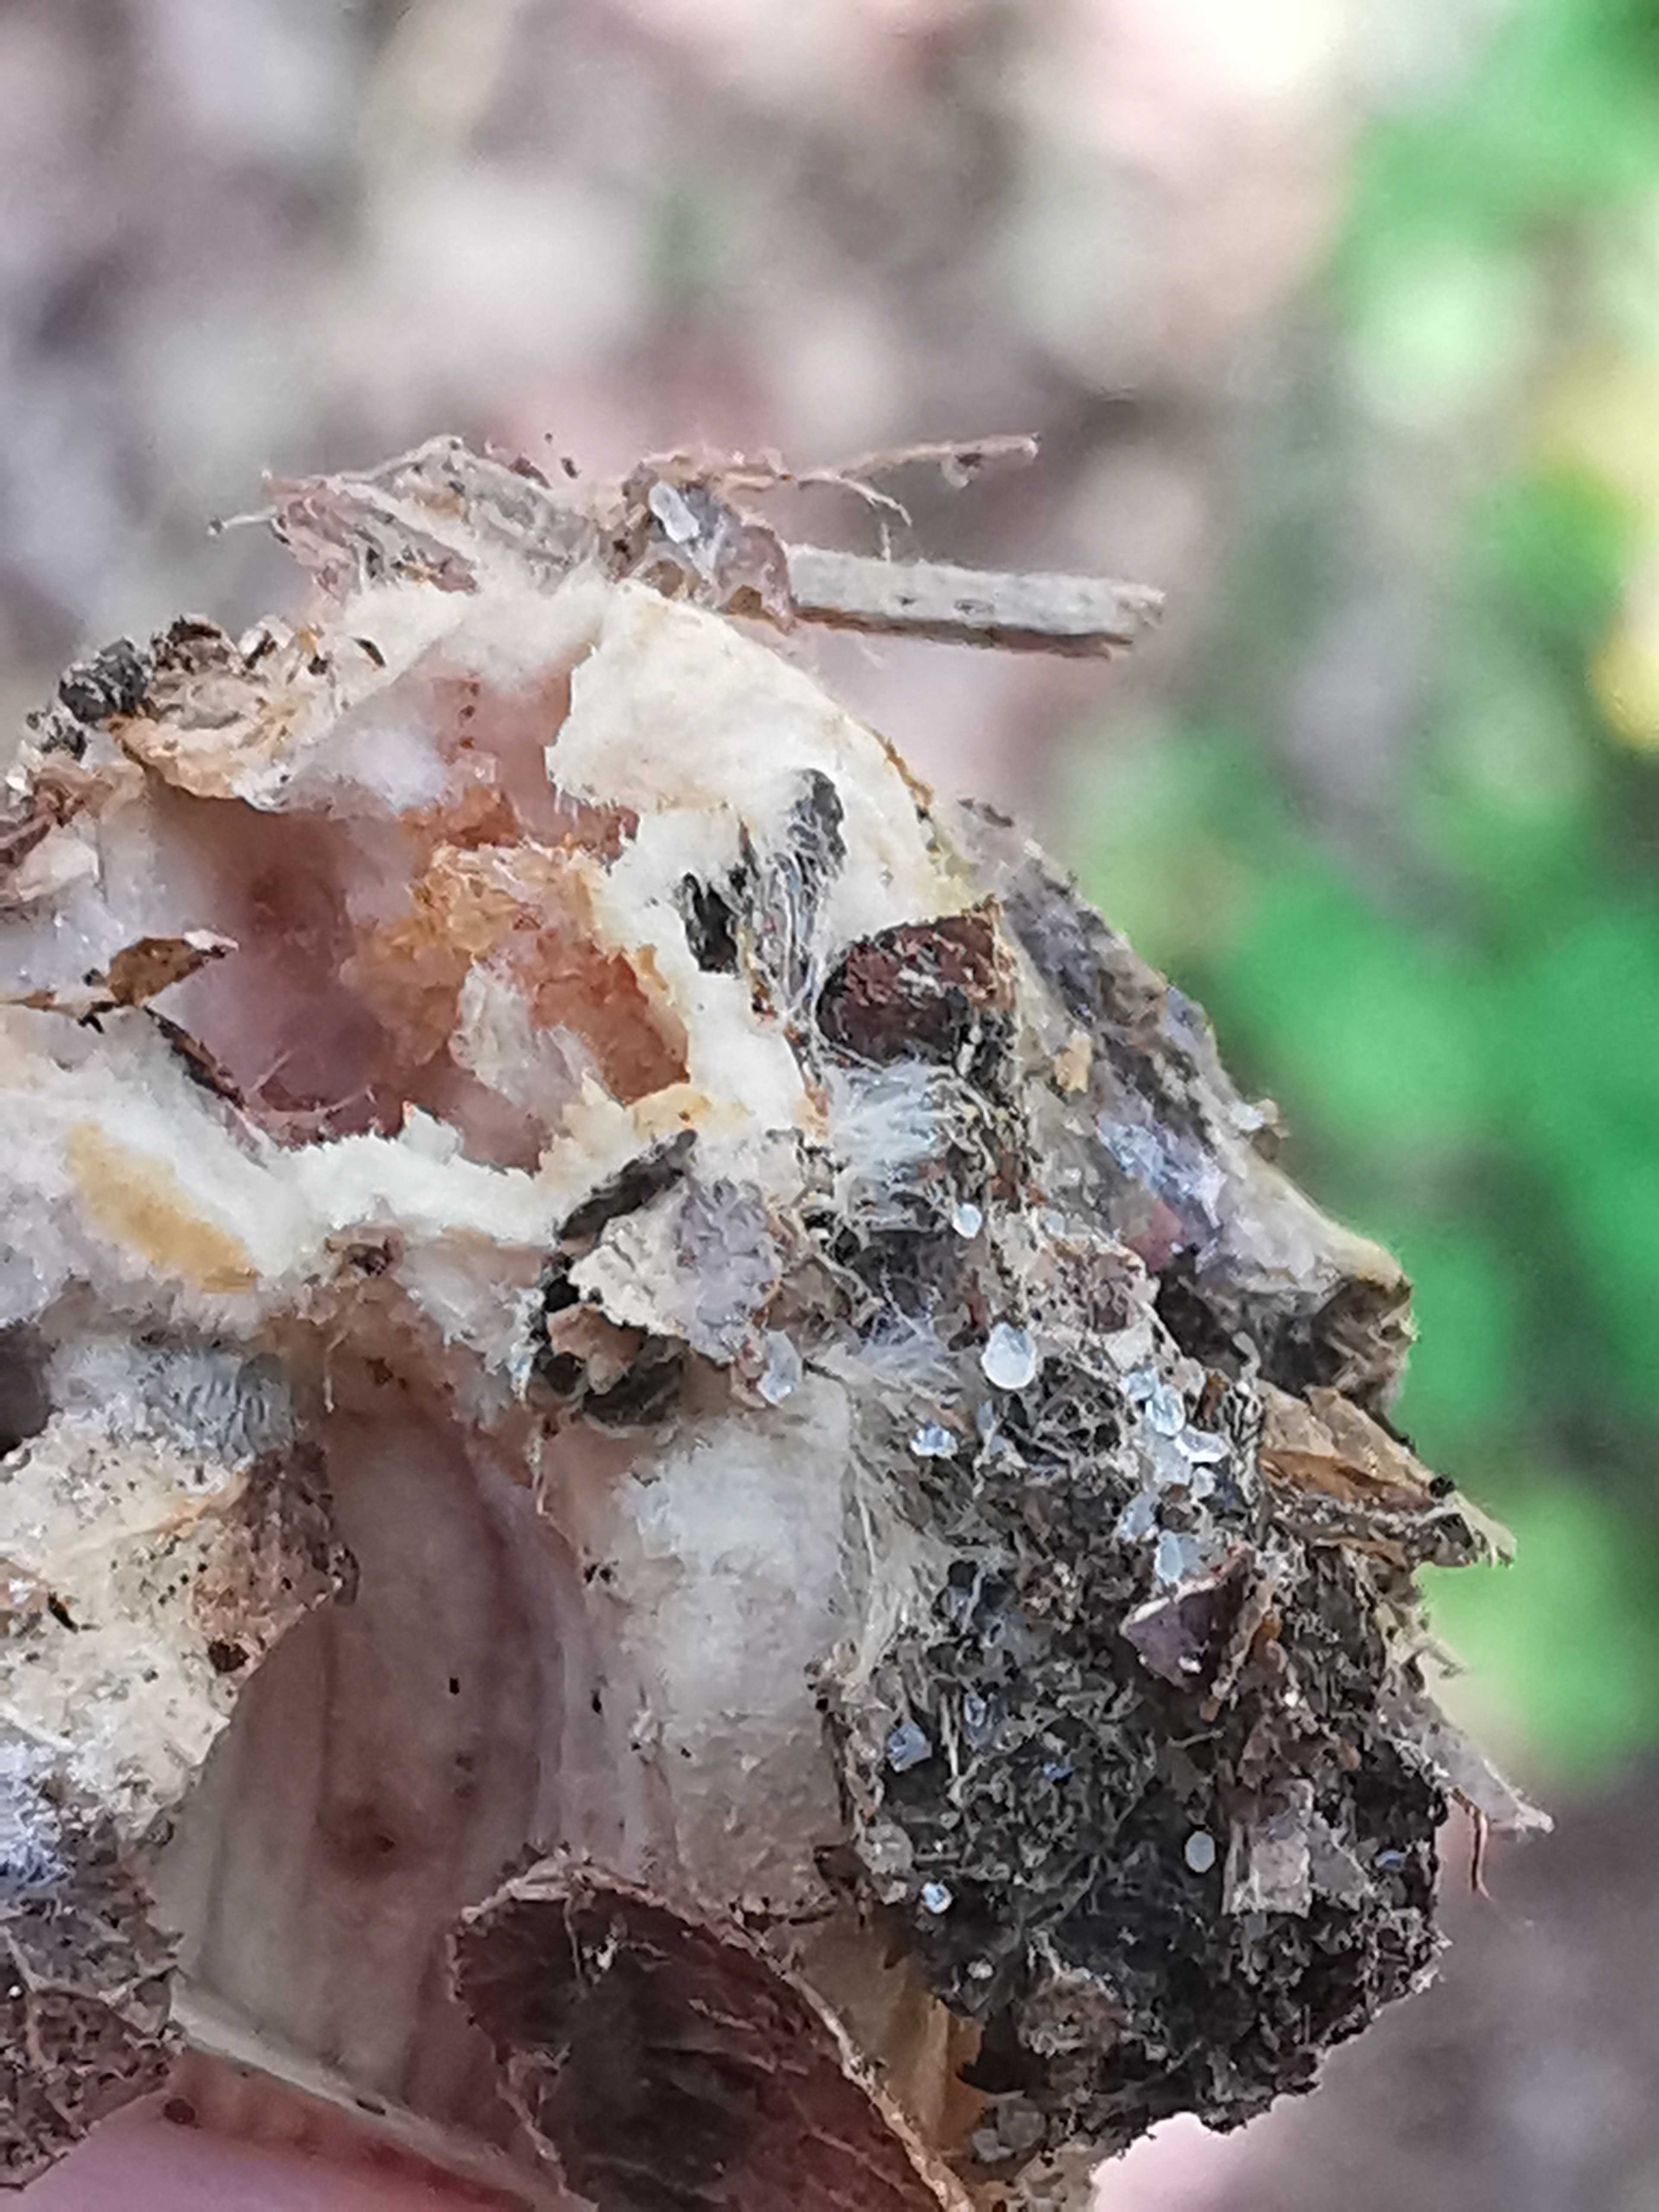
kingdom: Fungi
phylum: Basidiomycota
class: Agaricomycetes
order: Agaricales
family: Omphalotaceae
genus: Gymnopus
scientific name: Gymnopus
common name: fladhat
